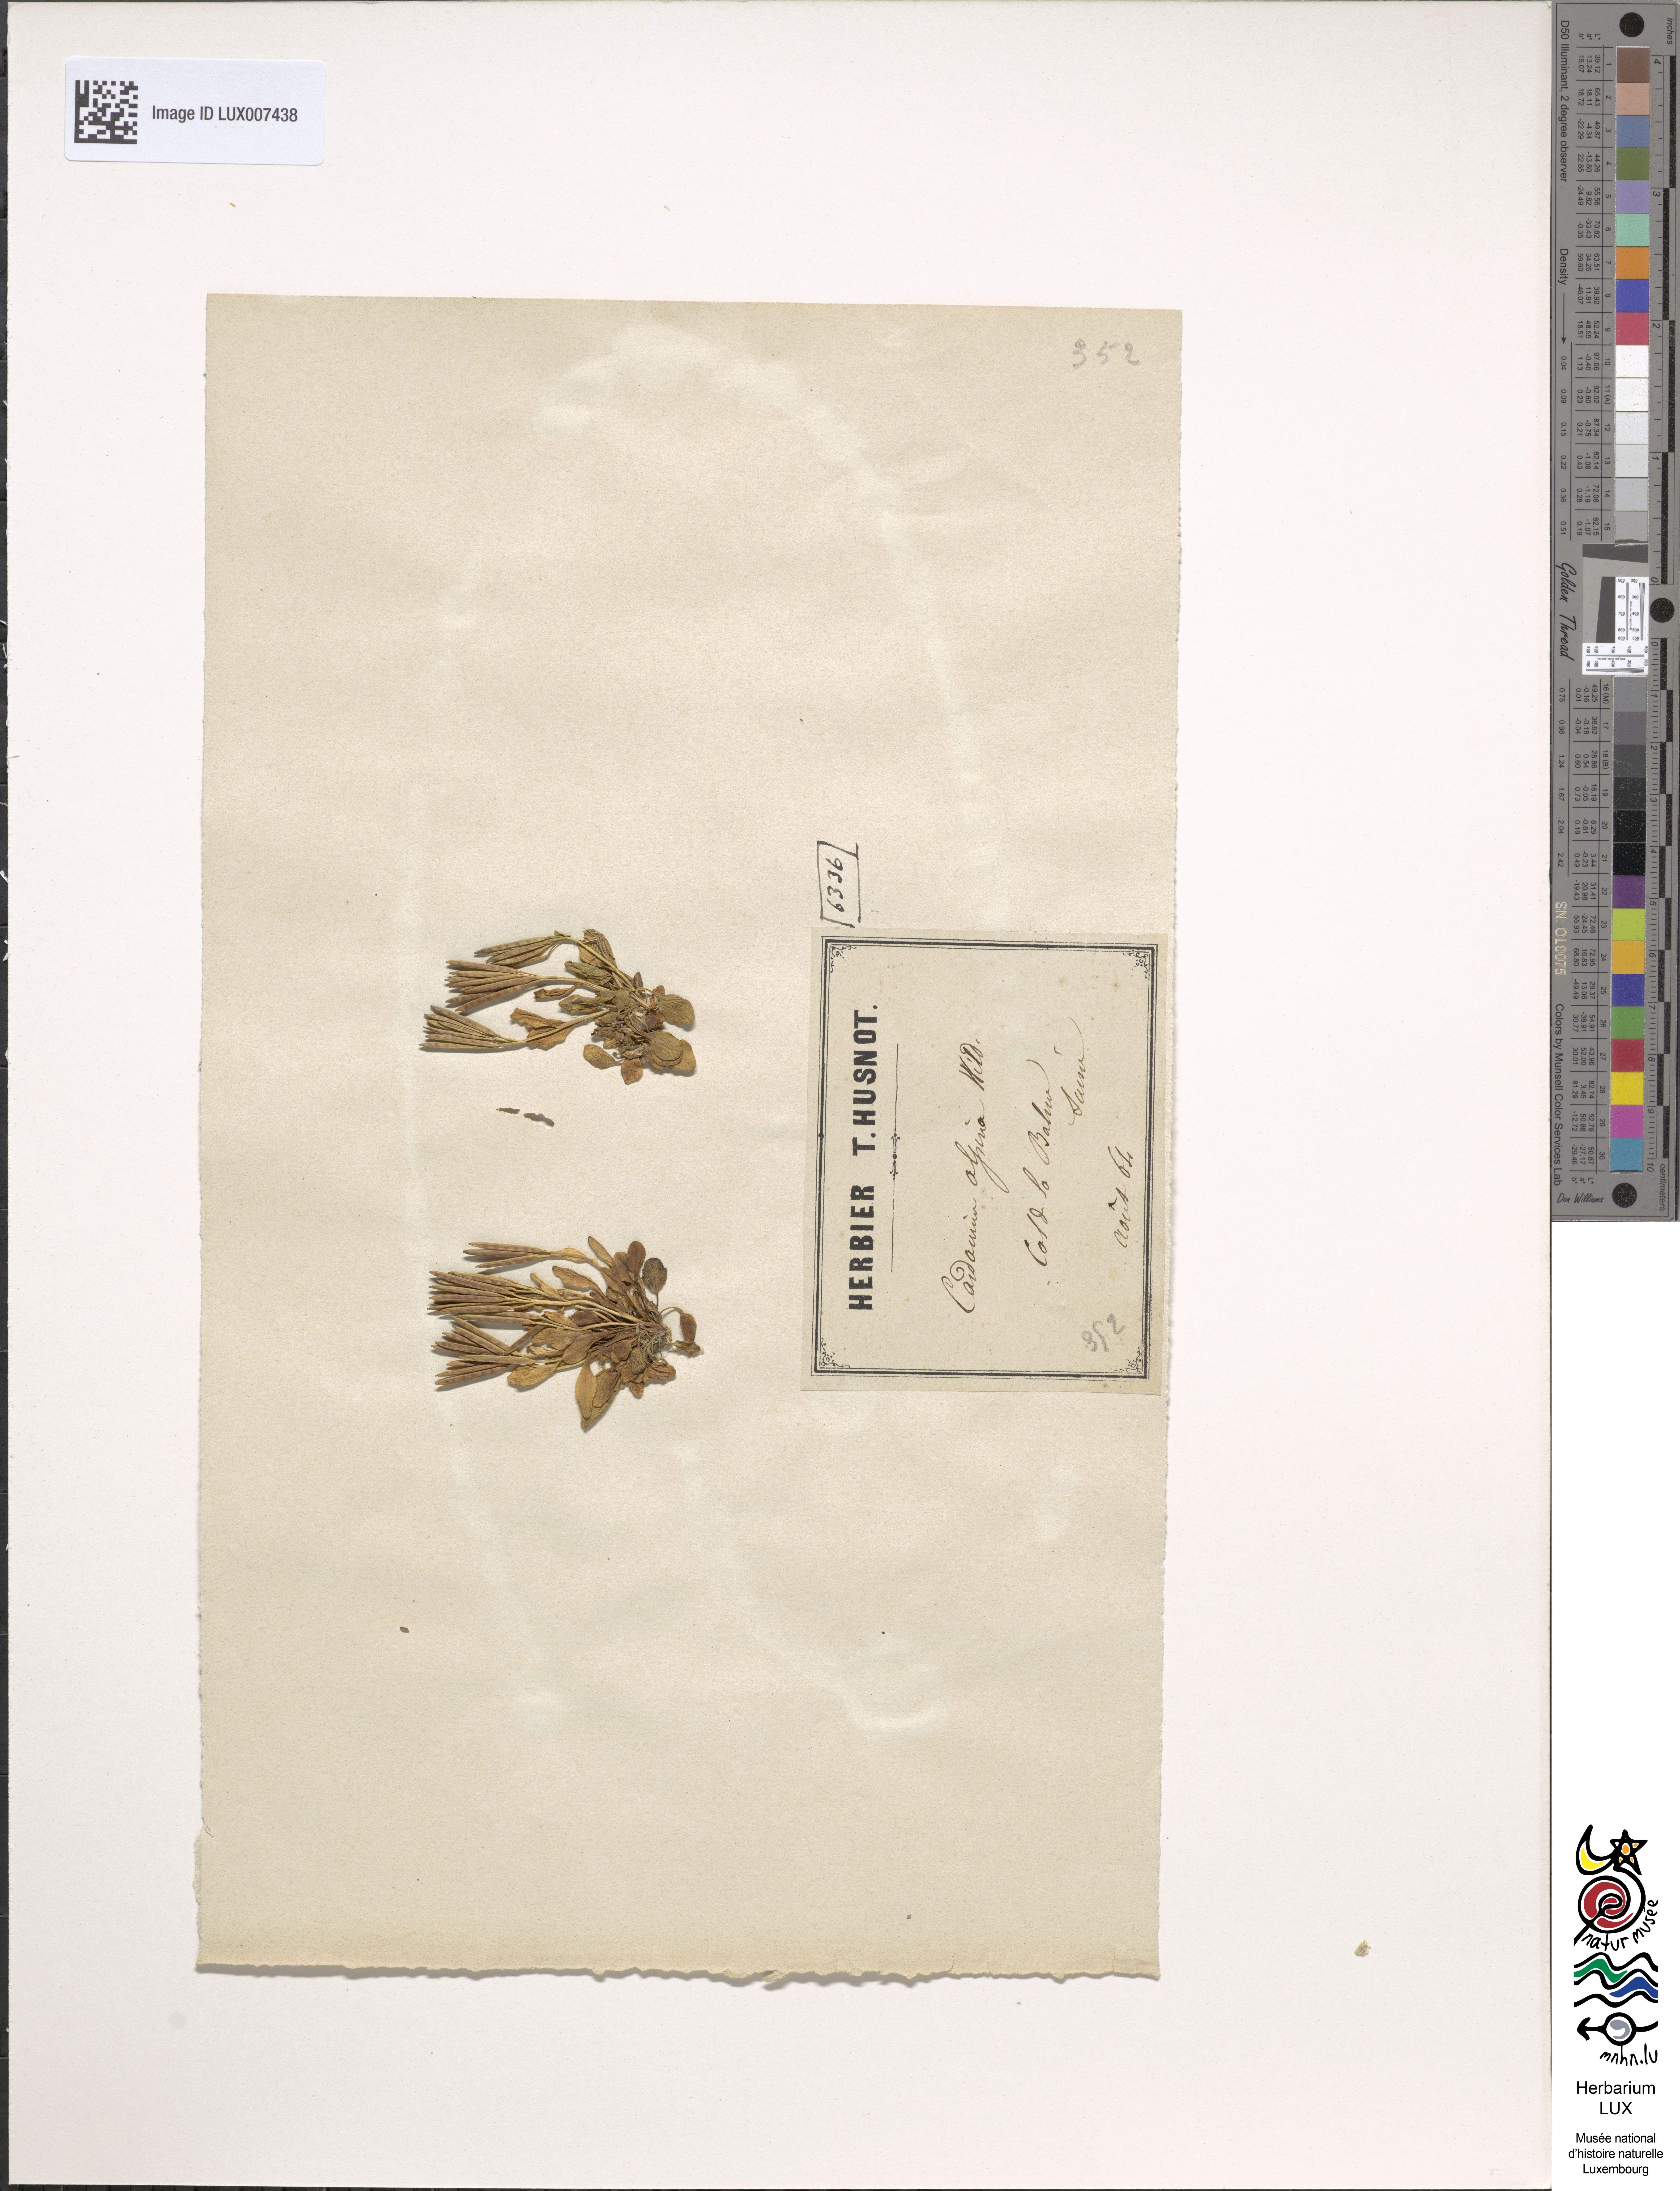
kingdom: Plantae
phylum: Tracheophyta
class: Magnoliopsida
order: Brassicales
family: Brassicaceae
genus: Cardamine
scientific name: Cardamine bellidifolia
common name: Alpine bittercress
